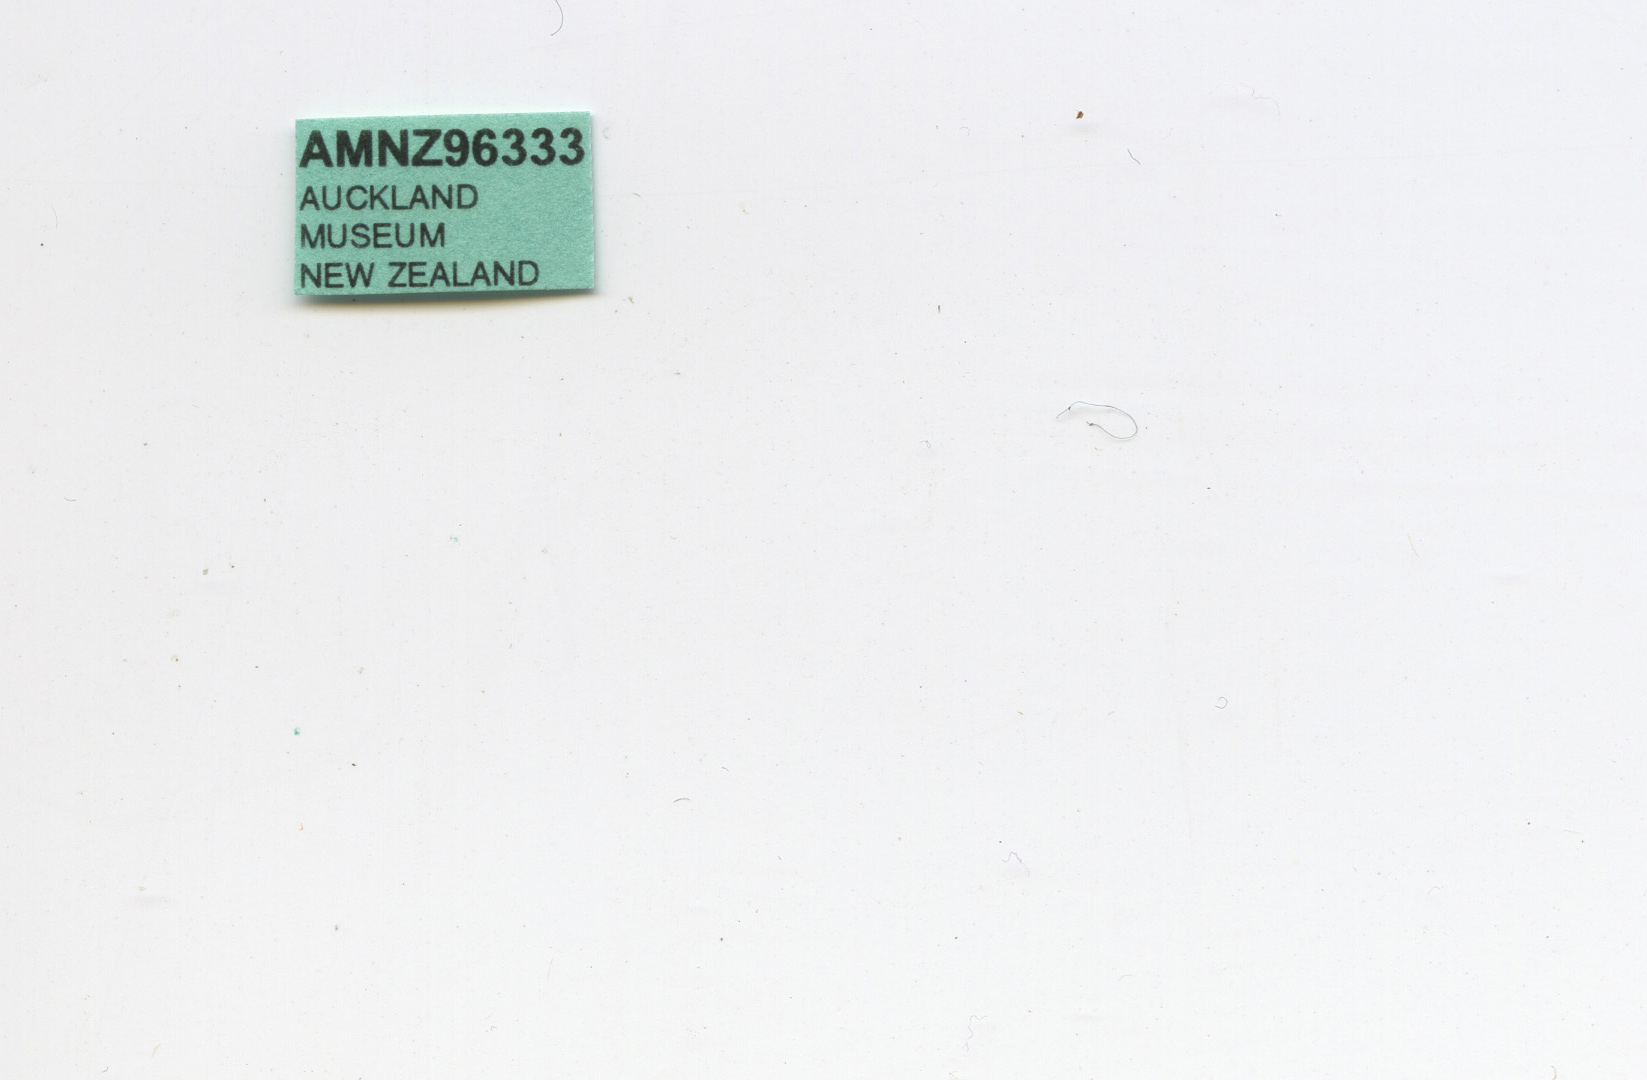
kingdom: Animalia
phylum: Arthropoda
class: Insecta
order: Diptera
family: Fanniidae
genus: Fannia
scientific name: Fannia anthracinalis
